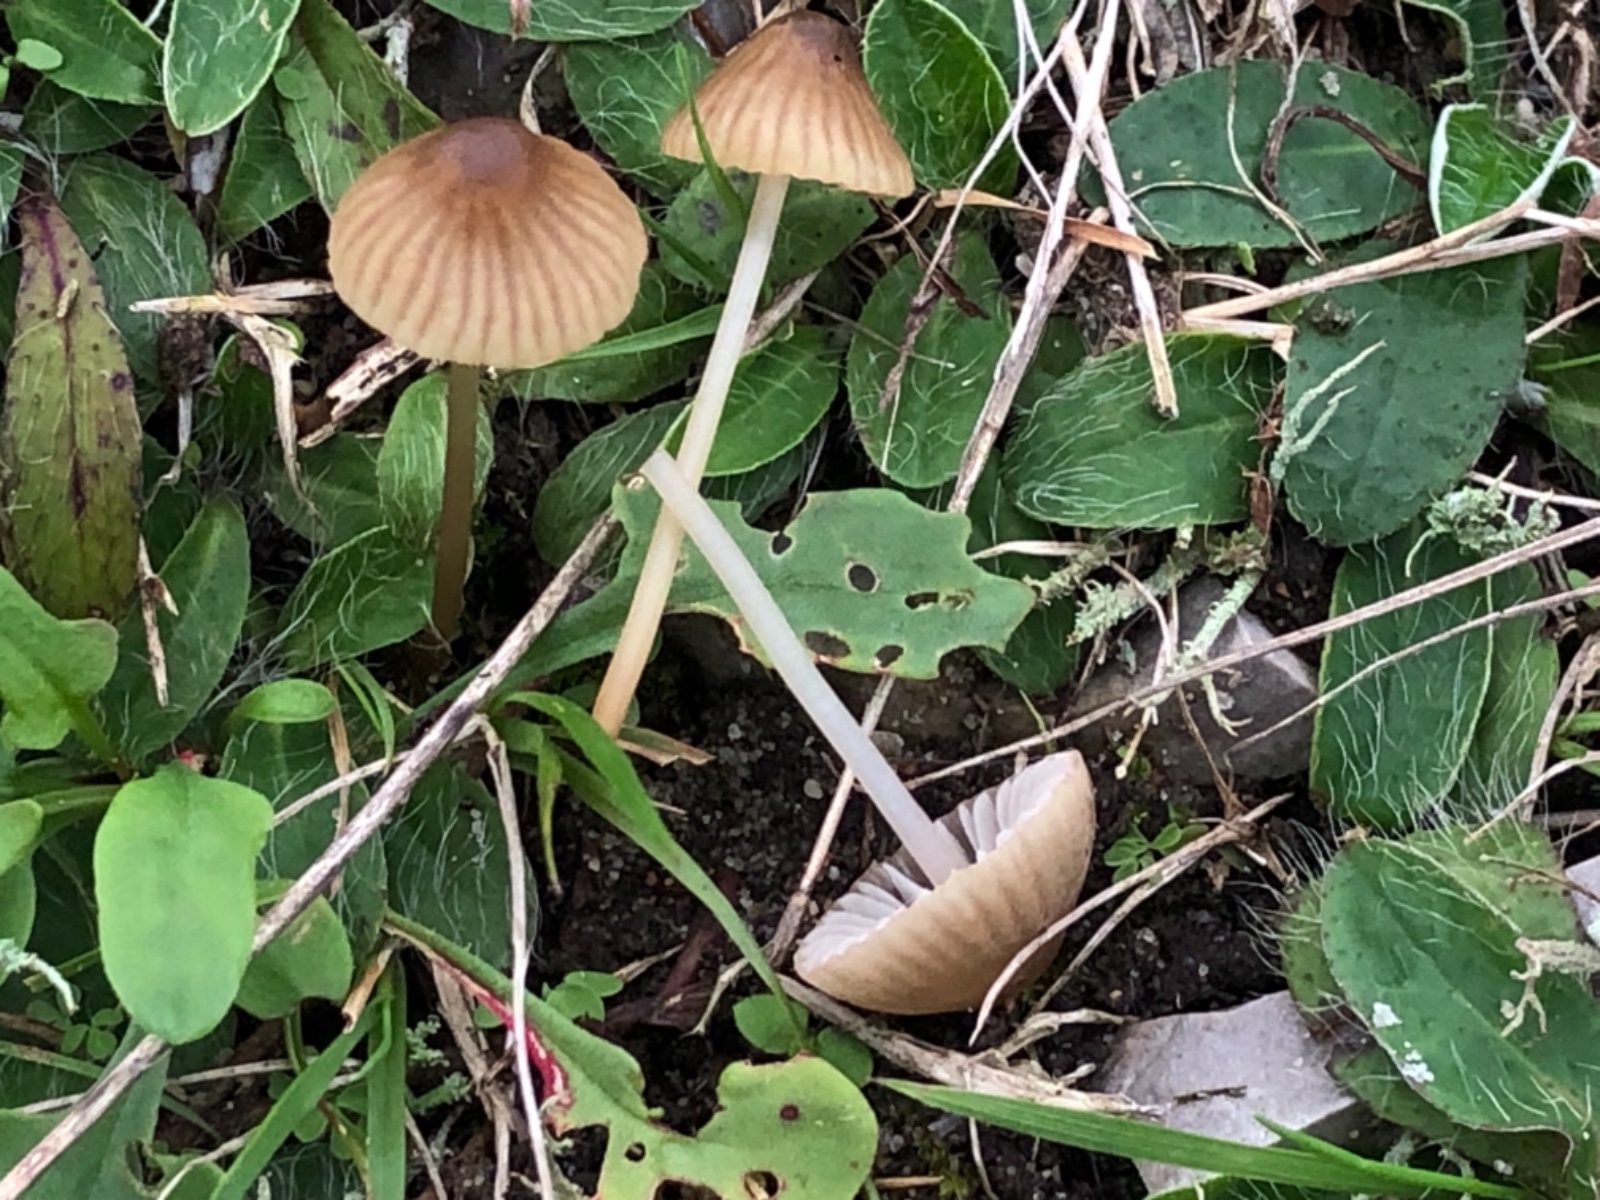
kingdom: Fungi
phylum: Basidiomycota
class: Agaricomycetes
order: Agaricales
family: Mycenaceae
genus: Mycena
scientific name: Mycena olivaceomarginata
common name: brunægget huesvamp
